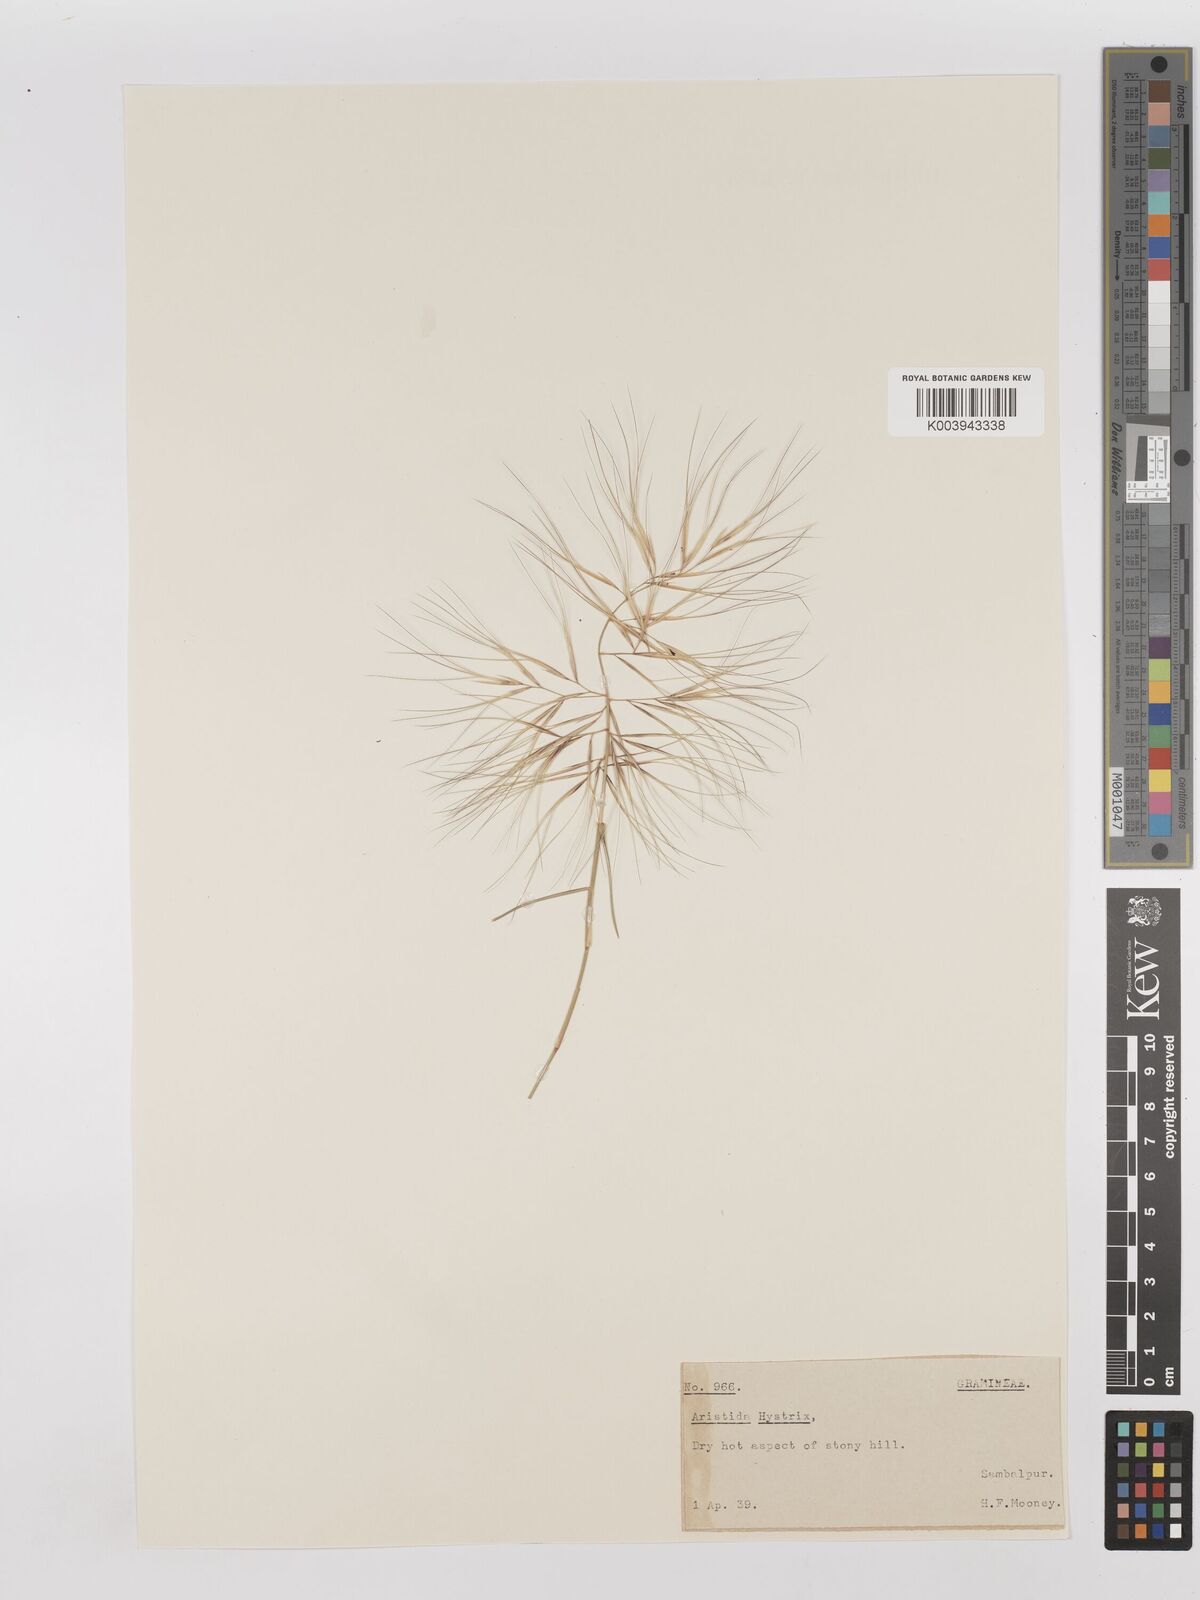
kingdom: Plantae
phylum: Tracheophyta
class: Liliopsida
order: Poales
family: Poaceae
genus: Aristida
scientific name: Aristida hystrix
